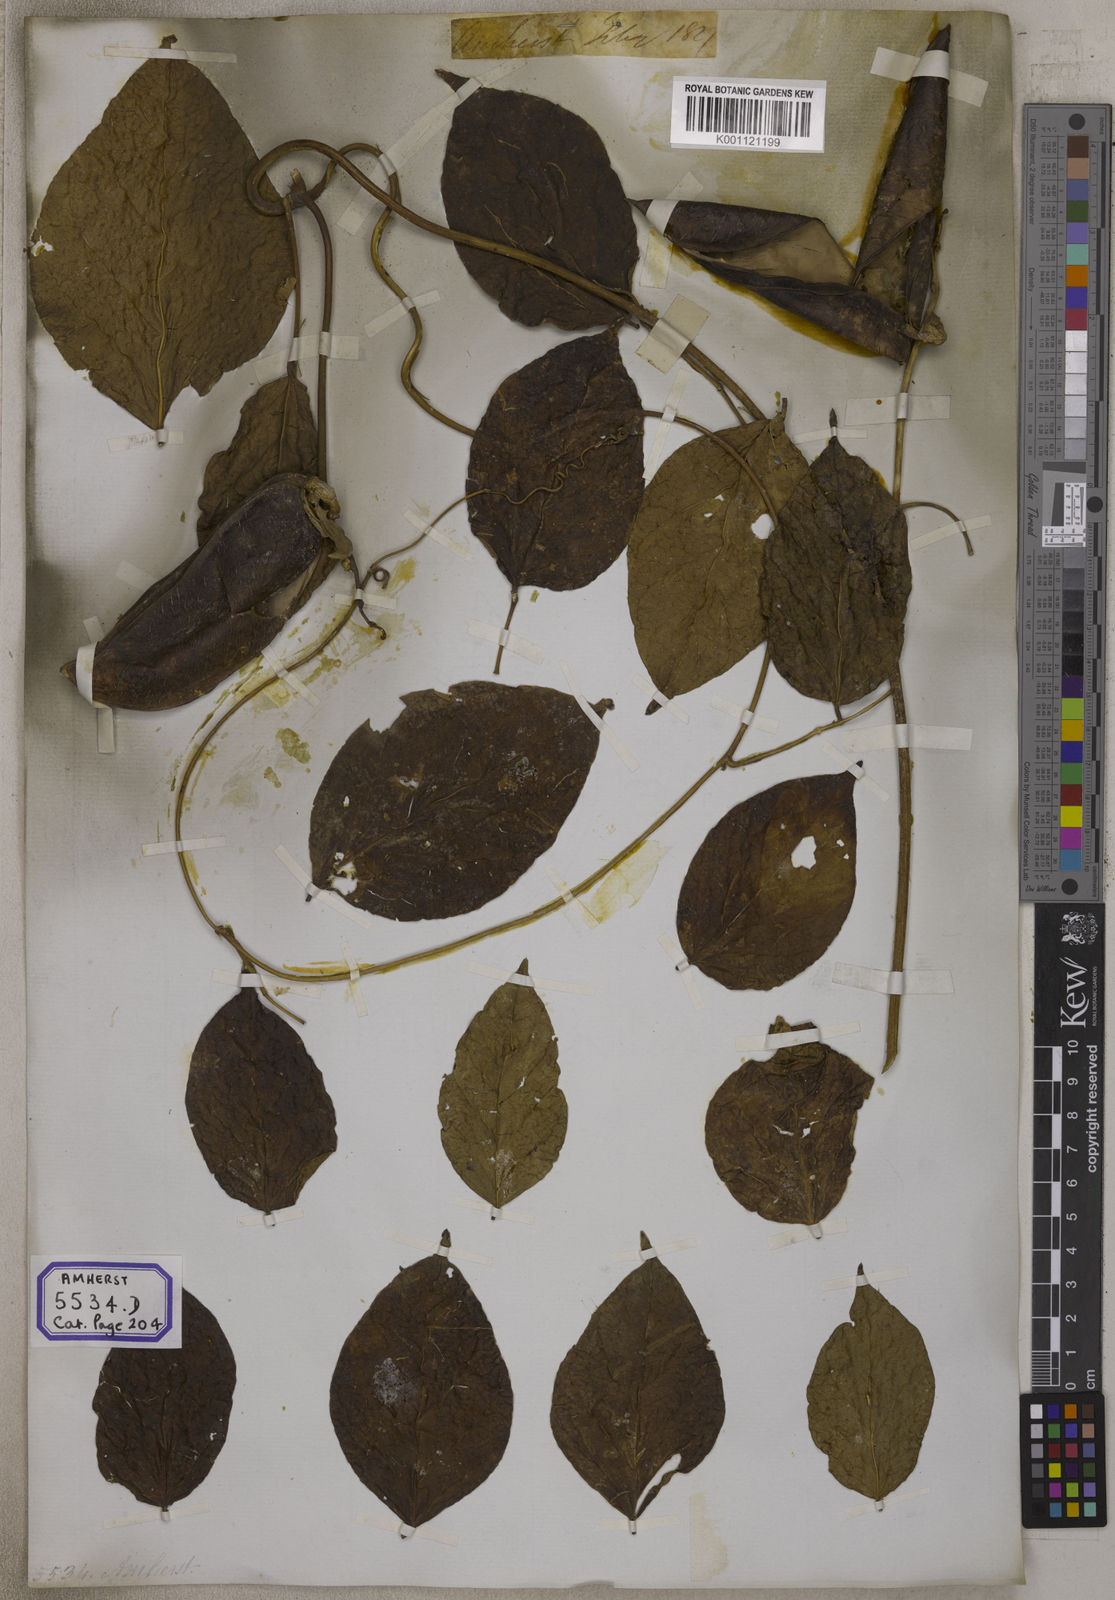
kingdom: Plantae
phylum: Tracheophyta
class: Magnoliopsida
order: Fabales
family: Fabaceae
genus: Canavalia
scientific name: Canavalia
